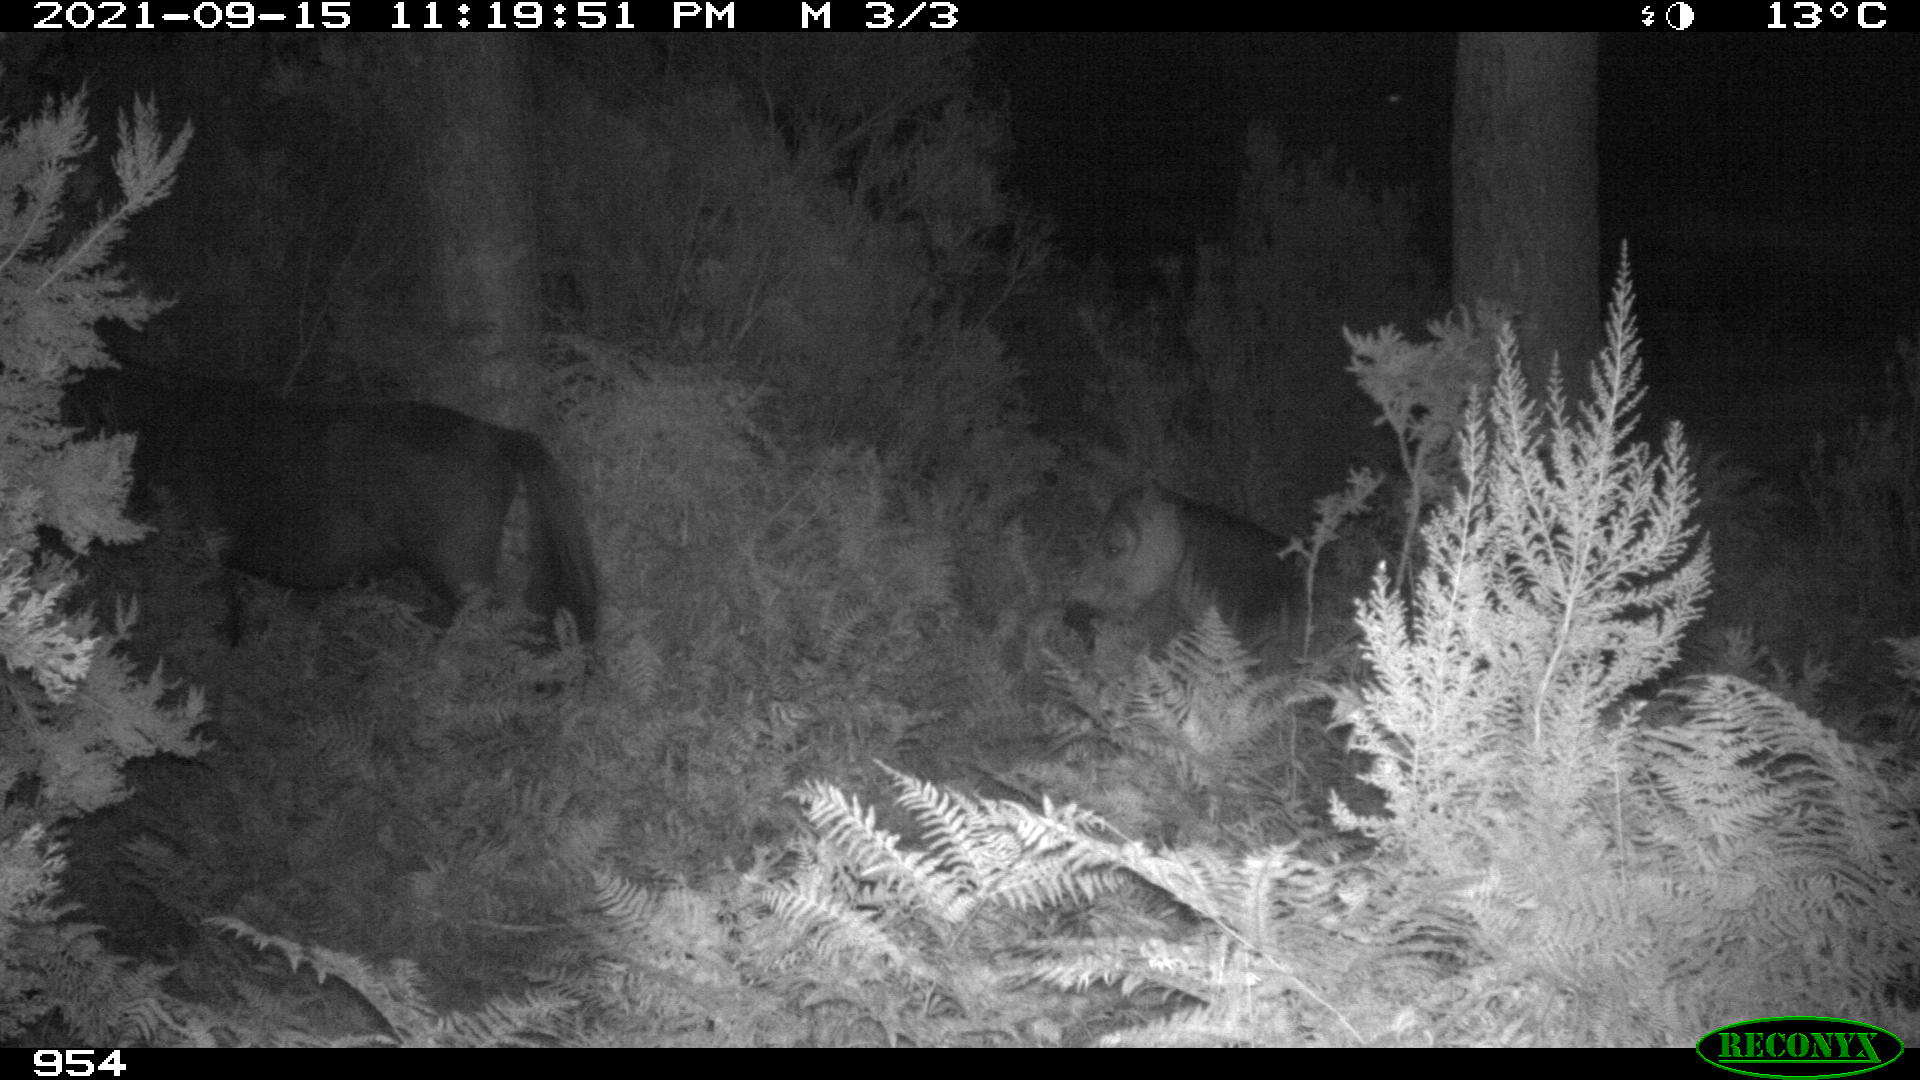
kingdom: Animalia
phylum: Chordata
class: Mammalia
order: Perissodactyla
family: Equidae
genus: Equus
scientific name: Equus caballus
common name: Horse
